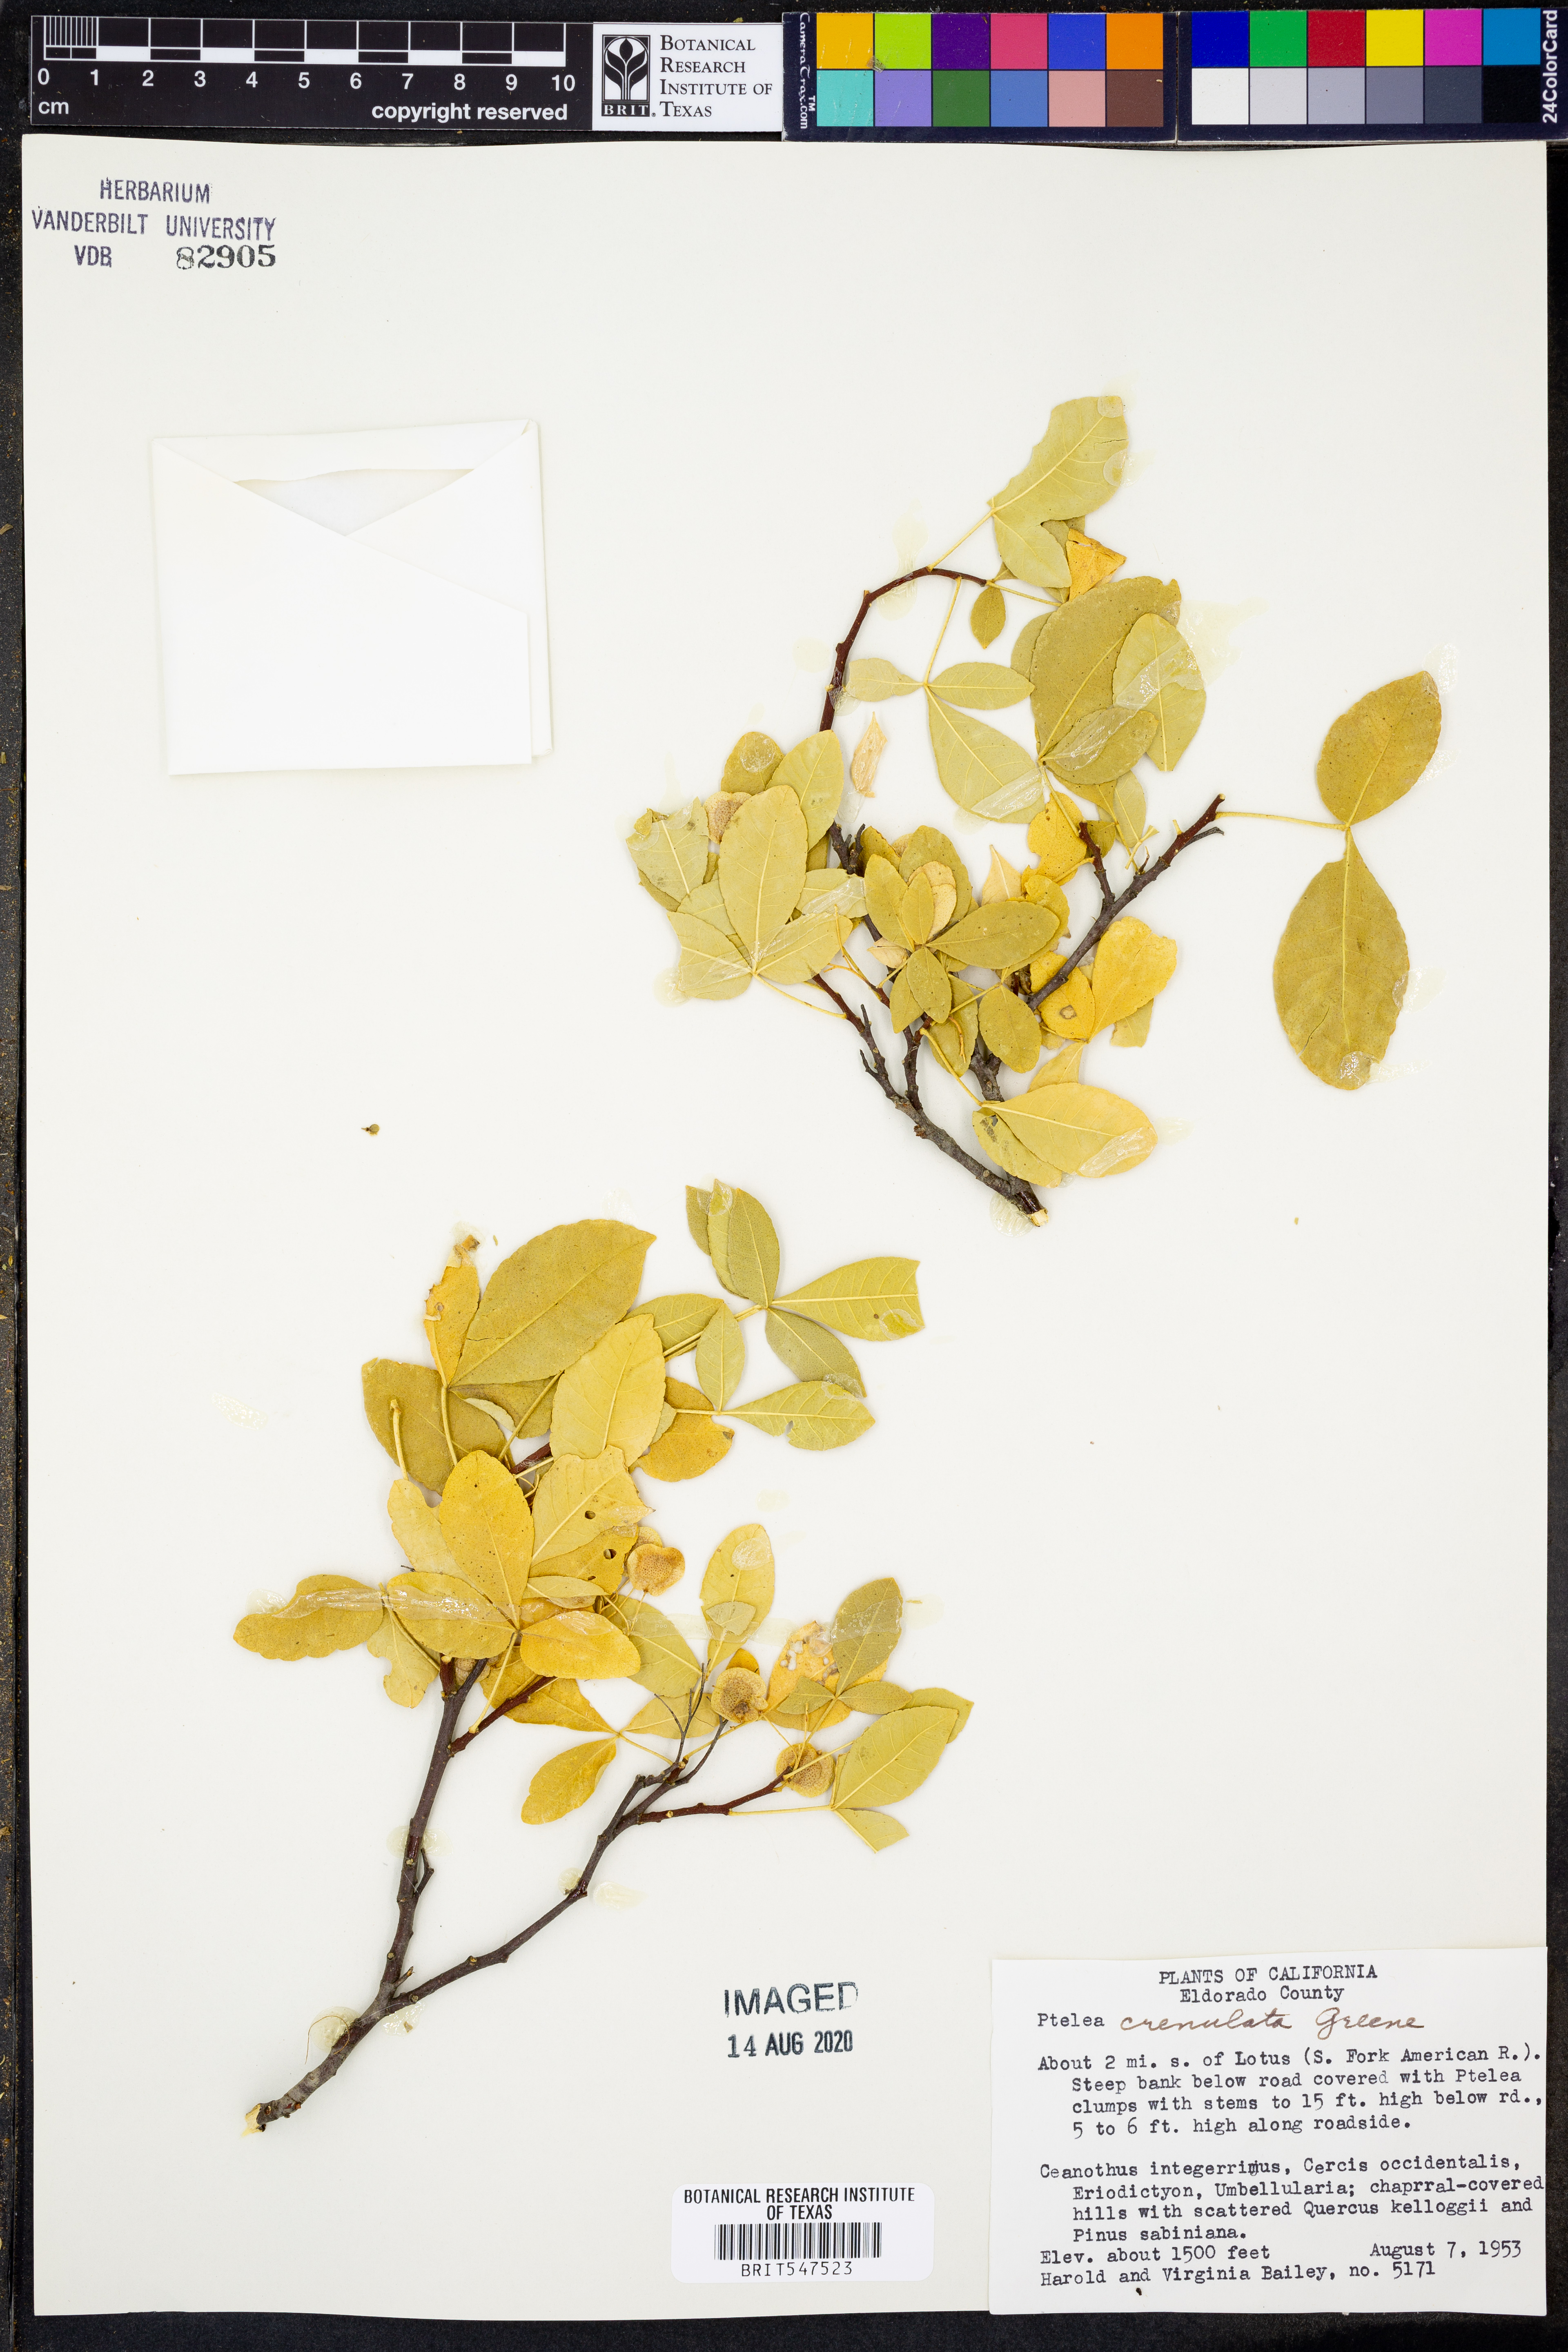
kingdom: Plantae
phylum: Tracheophyta
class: Magnoliopsida
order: Sapindales
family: Rutaceae
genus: Ptelea
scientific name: Ptelea crenulata
